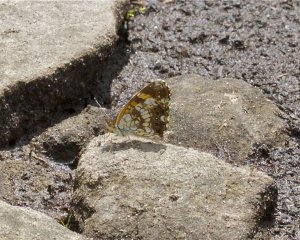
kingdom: Animalia
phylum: Arthropoda
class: Insecta
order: Lepidoptera
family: Nymphalidae
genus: Chlosyne
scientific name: Chlosyne nycteis
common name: Silvery Checkerspot
